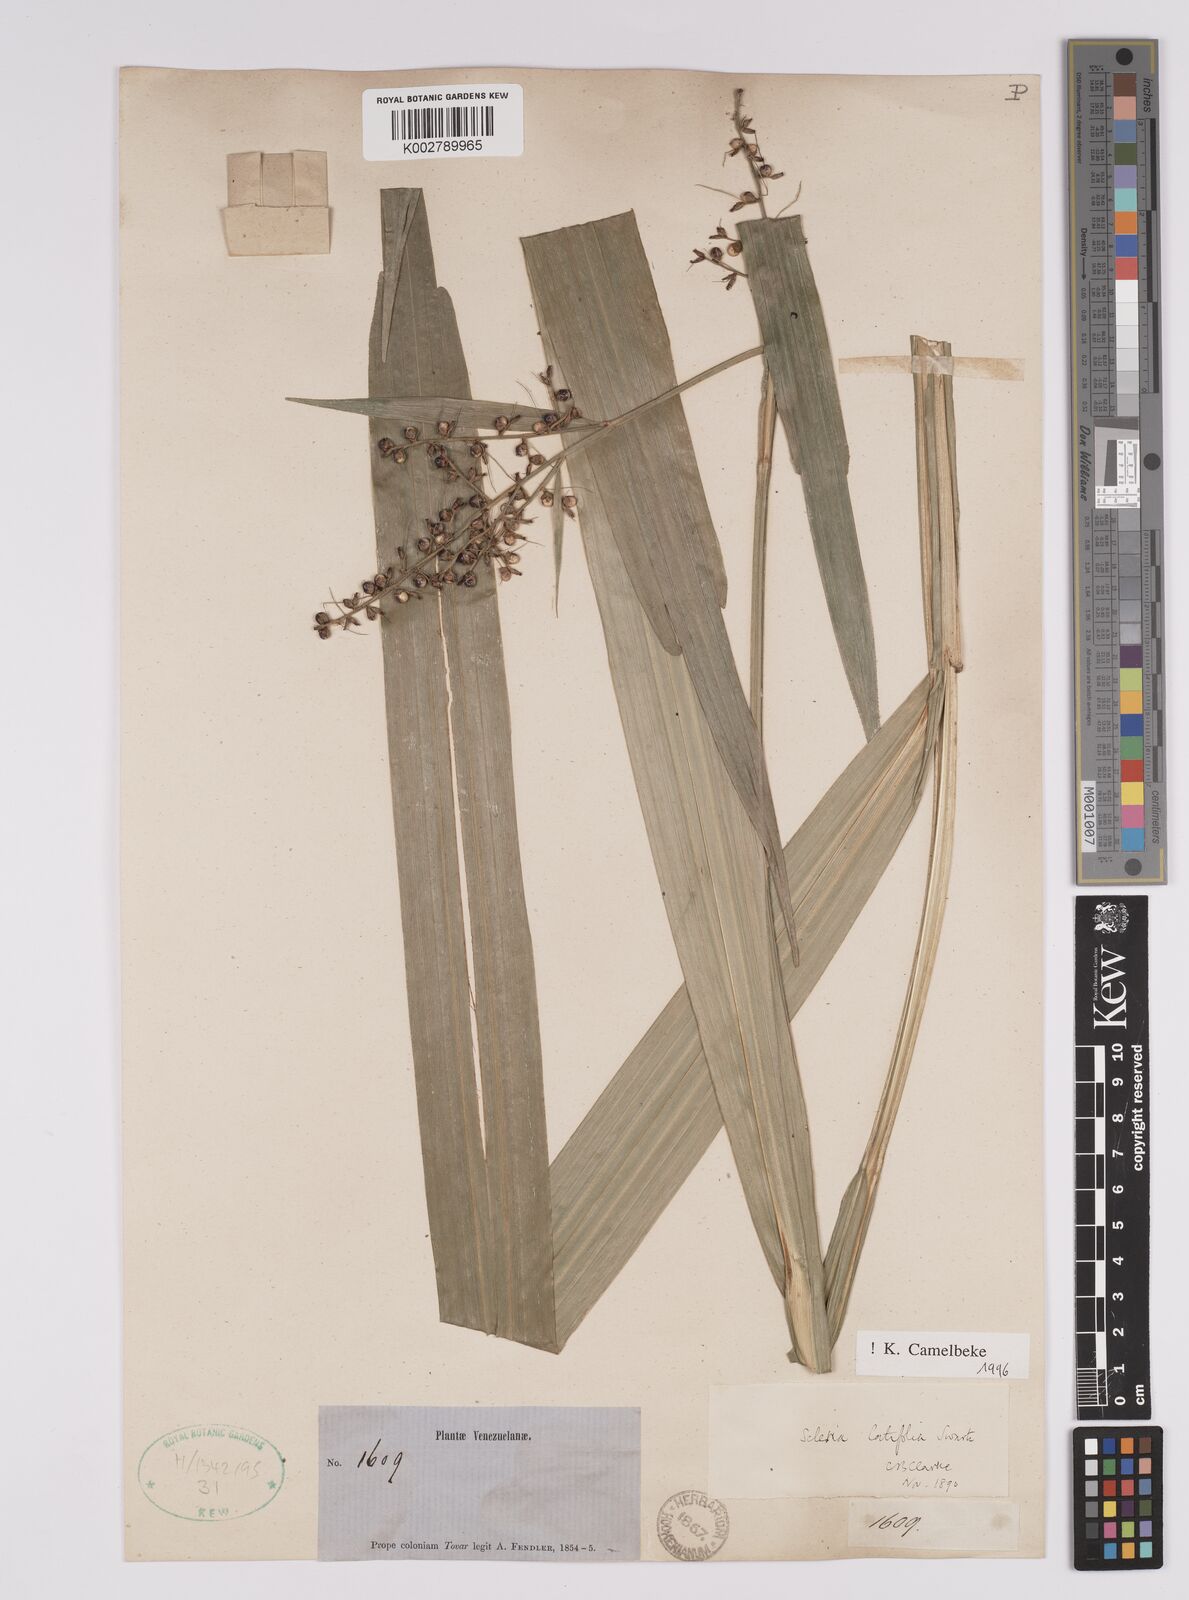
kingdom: Plantae
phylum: Tracheophyta
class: Liliopsida
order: Poales
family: Cyperaceae
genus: Scleria
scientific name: Scleria latifolia
